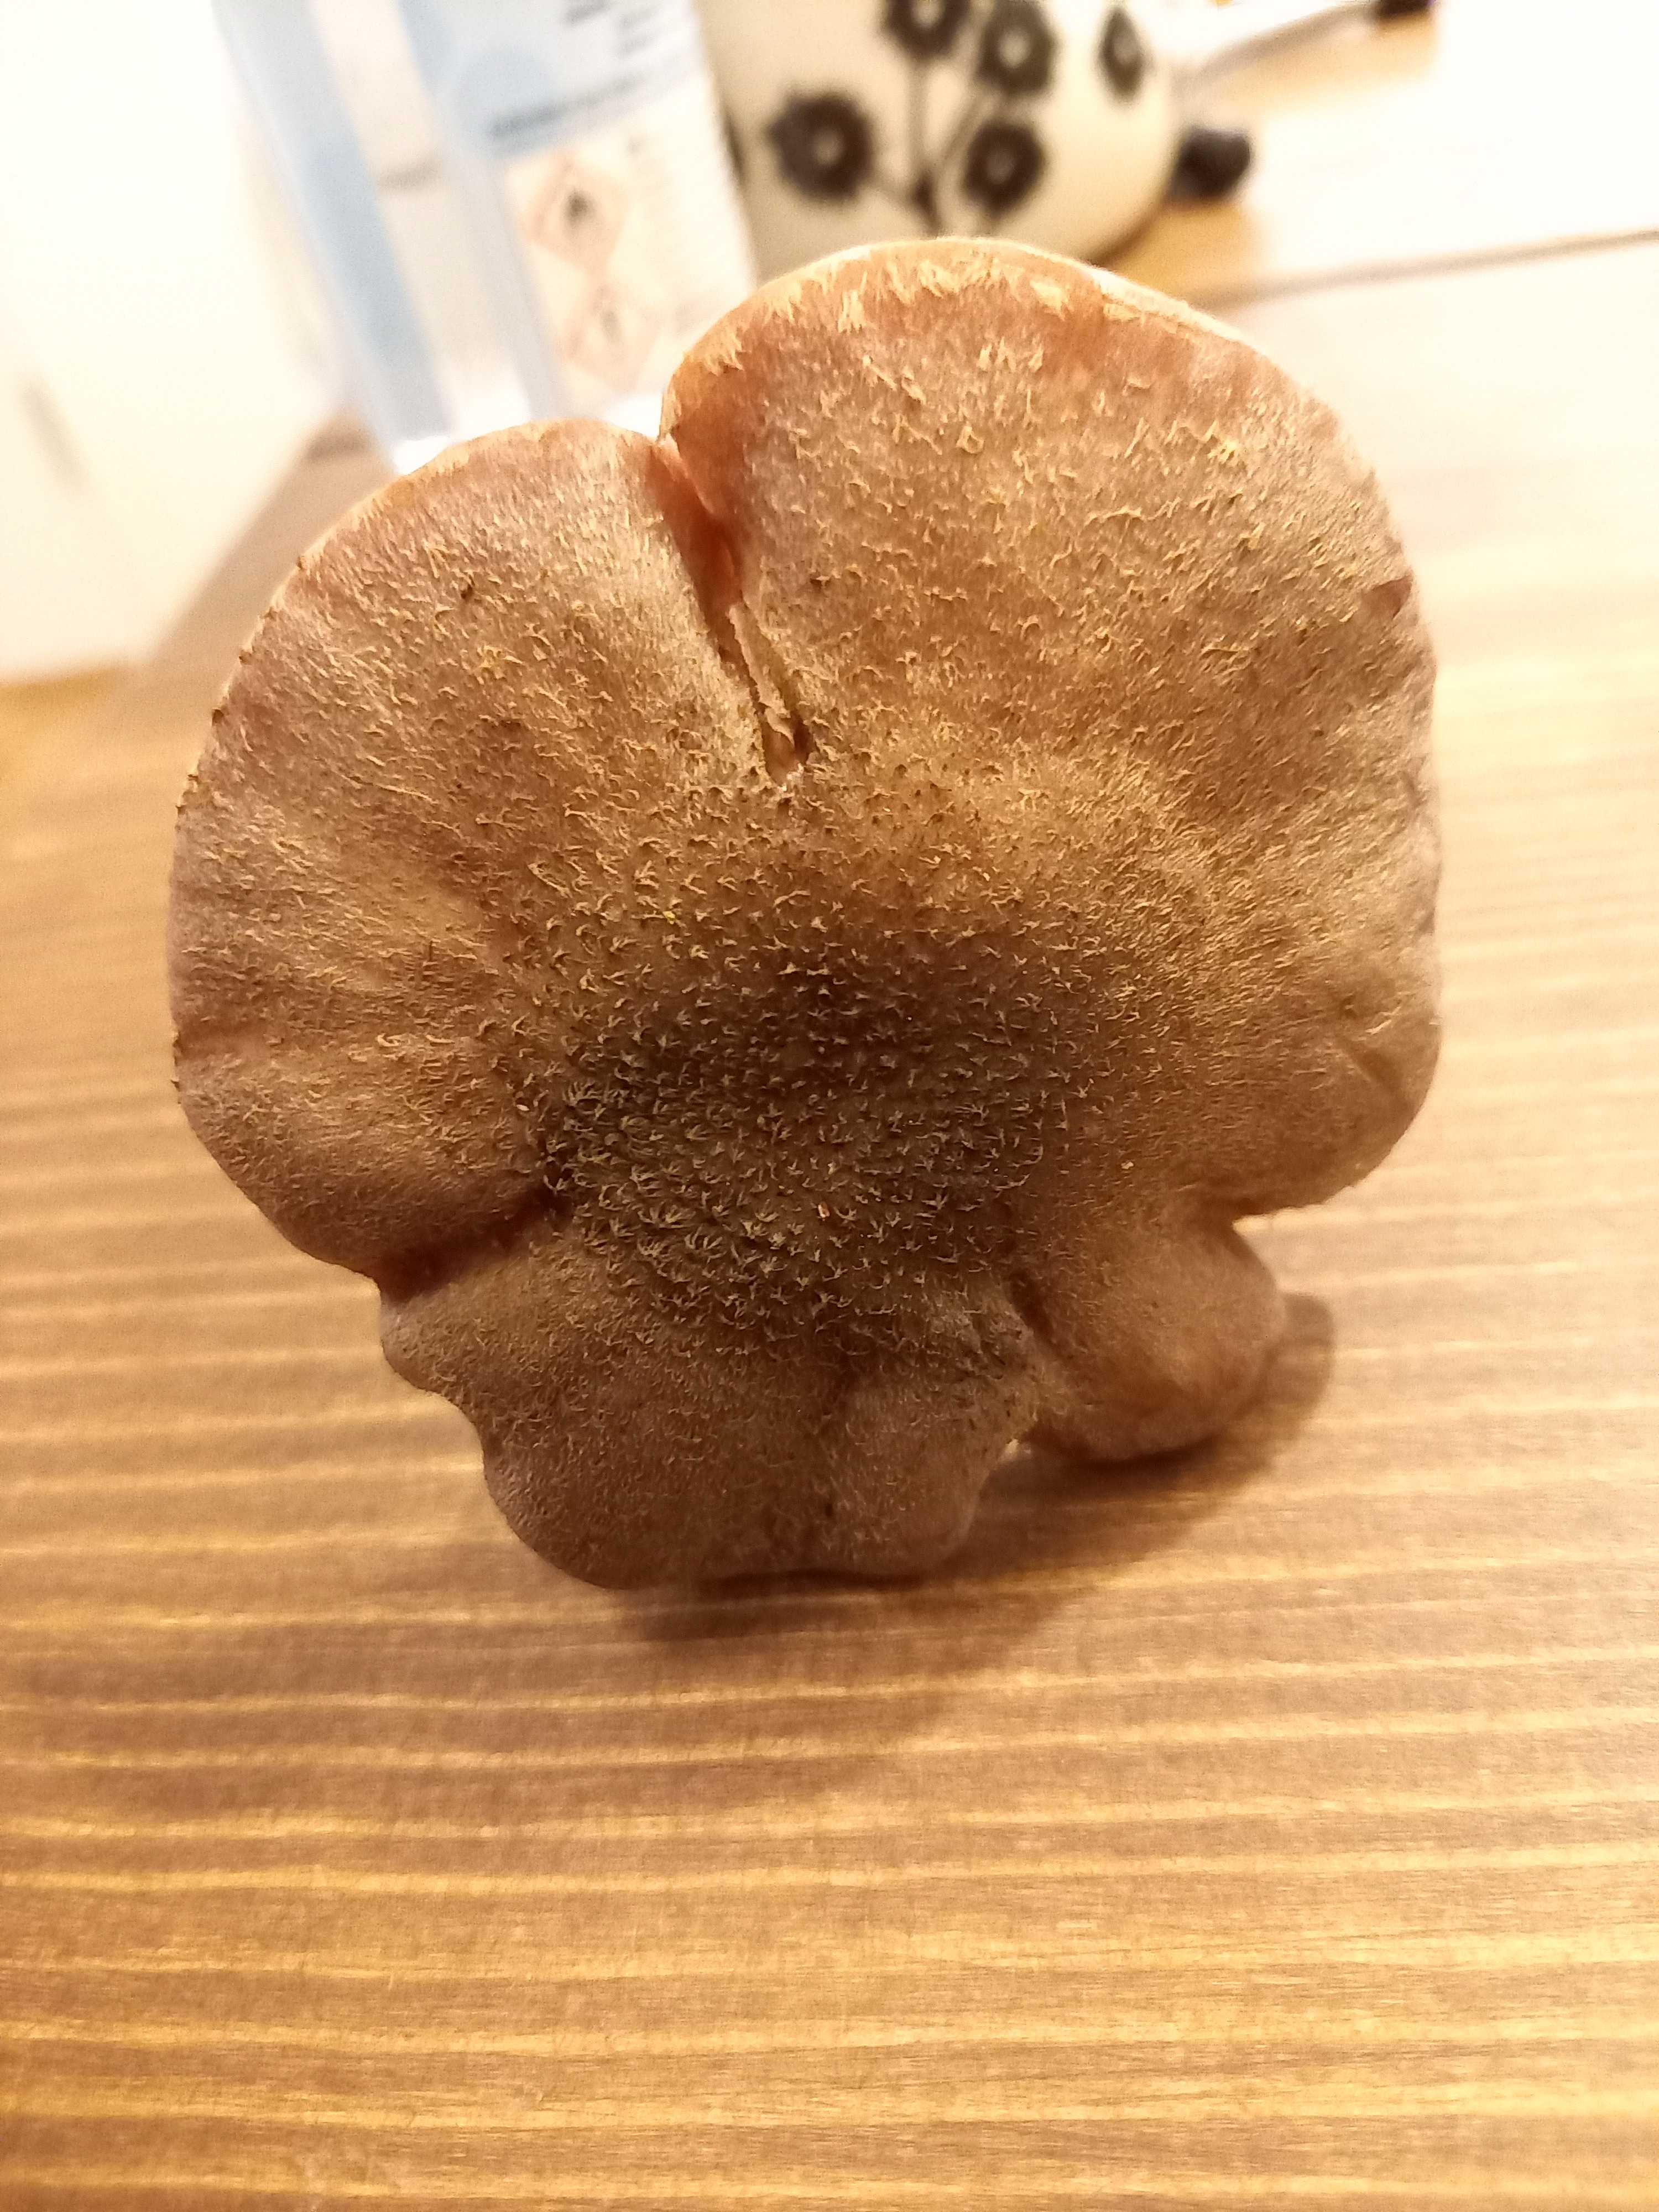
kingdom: Fungi
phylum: Basidiomycota
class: Agaricomycetes
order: Agaricales
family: Physalacriaceae
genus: Armillaria
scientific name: Armillaria lutea
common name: køllestokket honningsvamp
